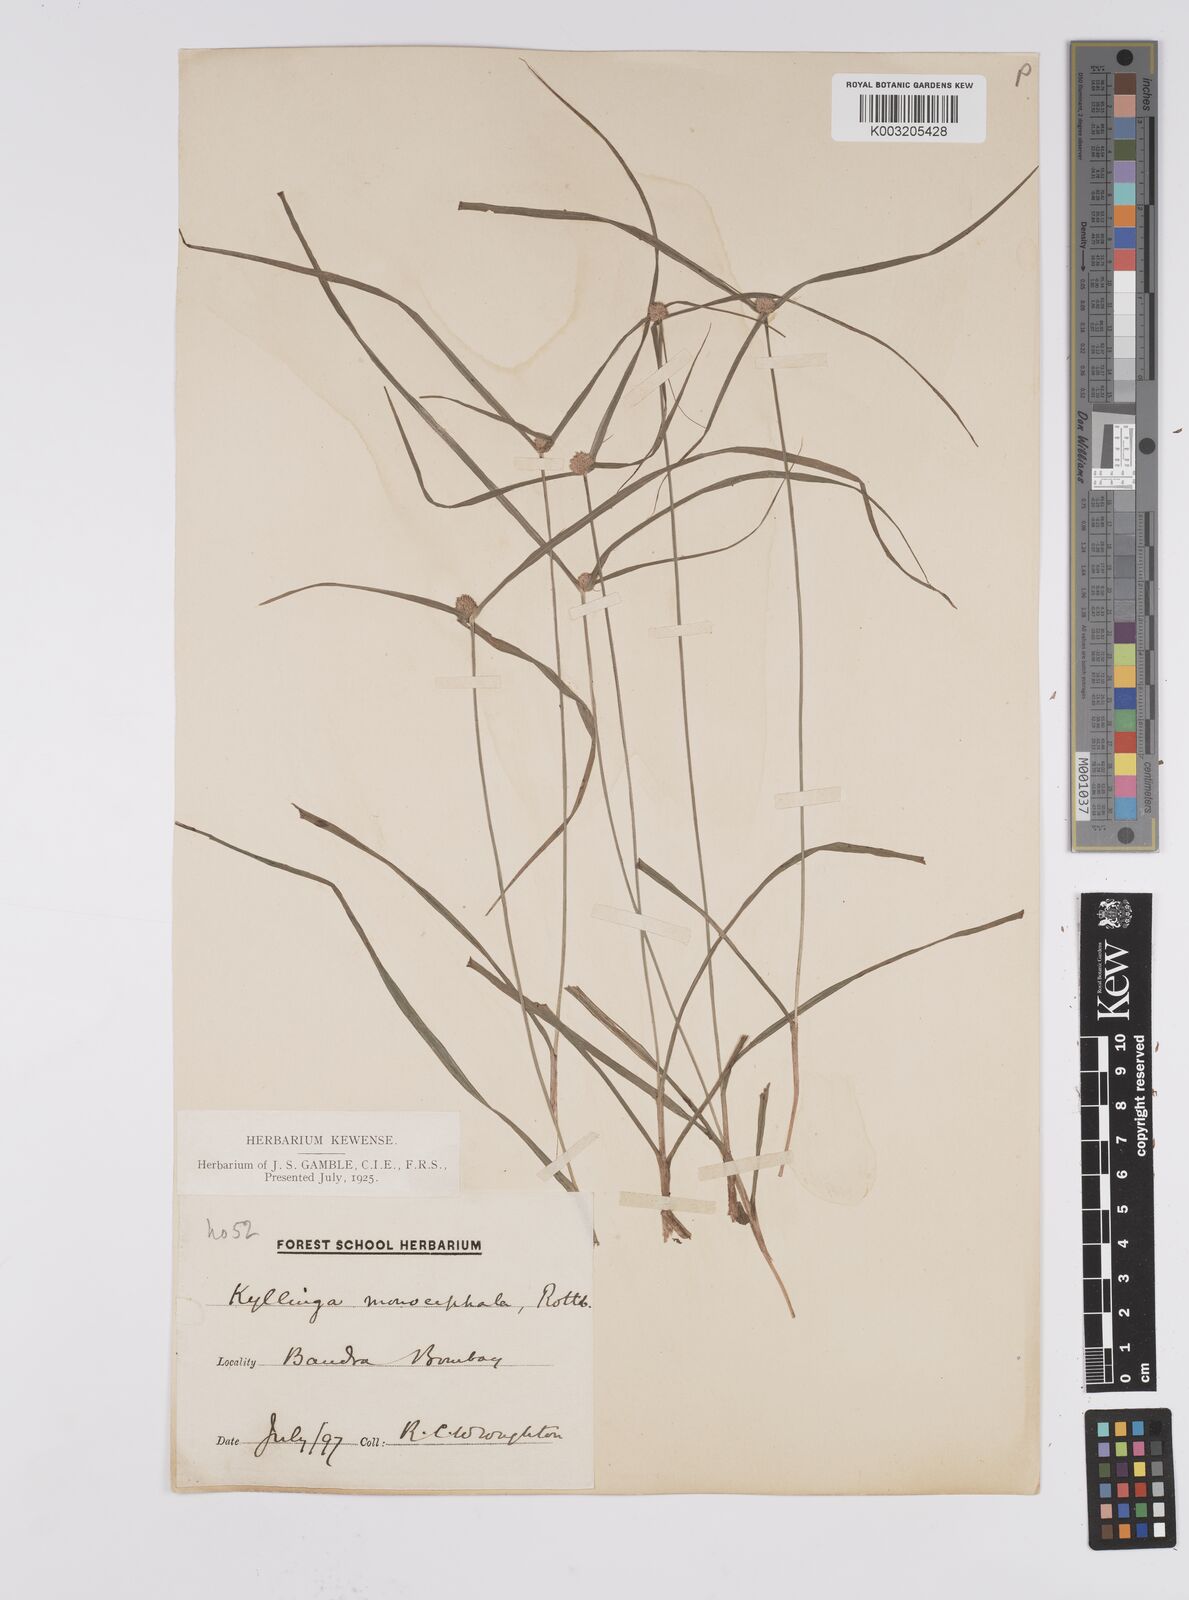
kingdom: Plantae
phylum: Tracheophyta
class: Liliopsida
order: Poales
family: Cyperaceae
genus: Cyperus
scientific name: Cyperus nemoralis
